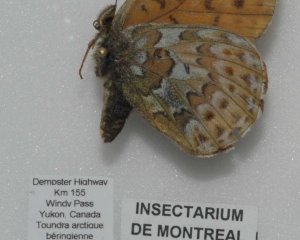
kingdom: Animalia
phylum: Arthropoda
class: Insecta
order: Lepidoptera
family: Nymphalidae
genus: Clossiana
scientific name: Clossiana astarte
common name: Astarte Fritillary
